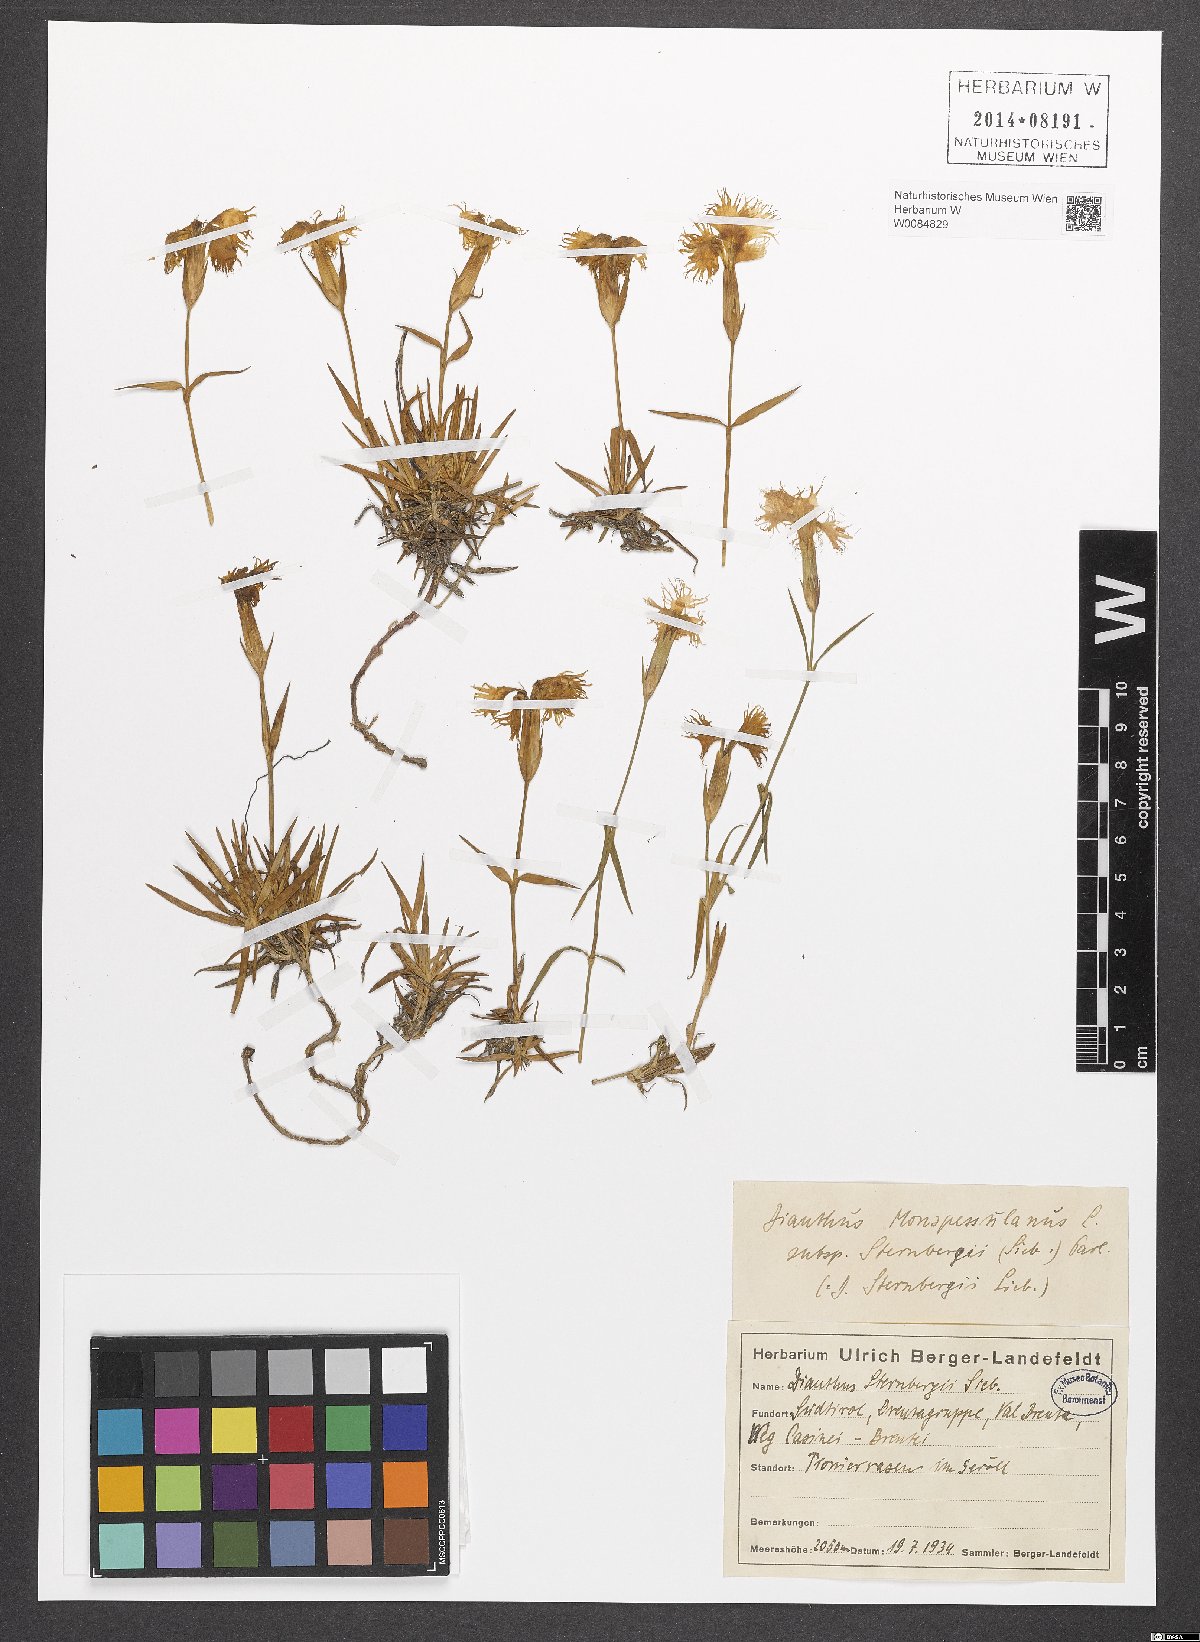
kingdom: Plantae
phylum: Tracheophyta
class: Magnoliopsida
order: Caryophyllales
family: Caryophyllaceae
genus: Dianthus
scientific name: Dianthus monspessulanus
